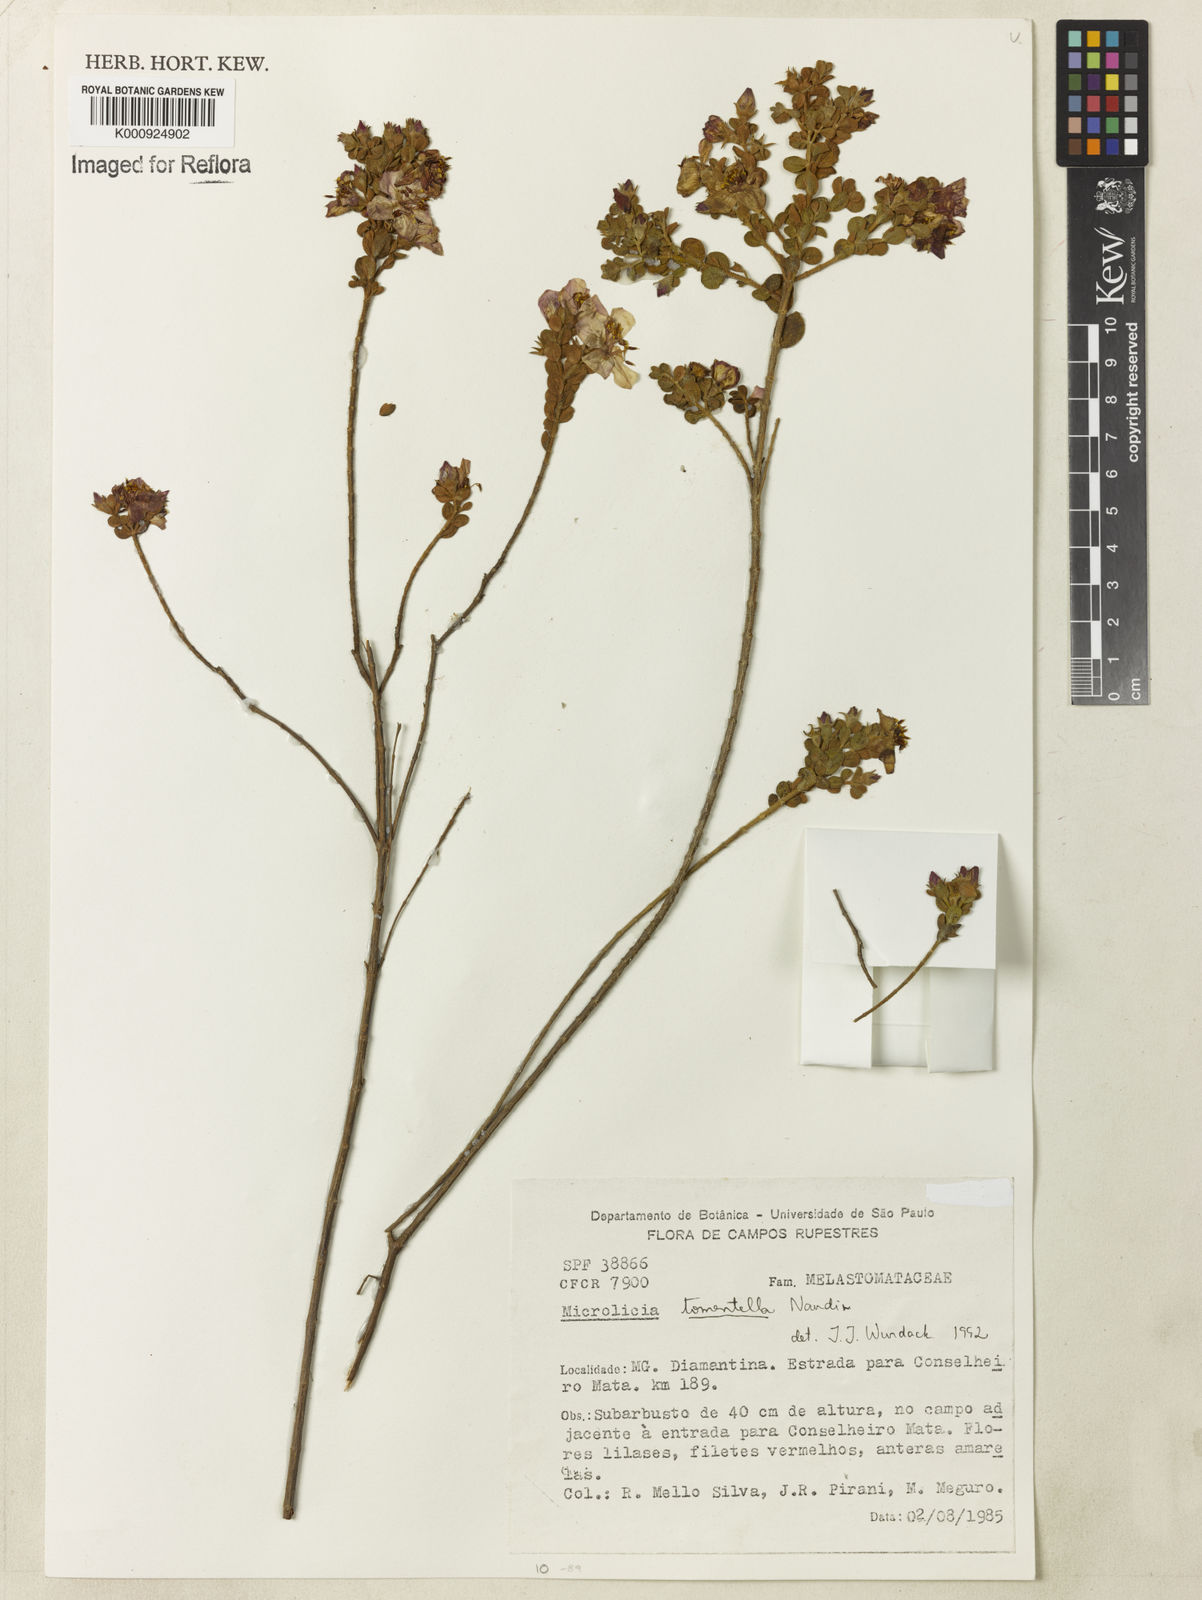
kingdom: Plantae
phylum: Tracheophyta
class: Magnoliopsida
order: Myrtales
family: Melastomataceae
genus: Microlicia
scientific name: Microlicia tomentella
